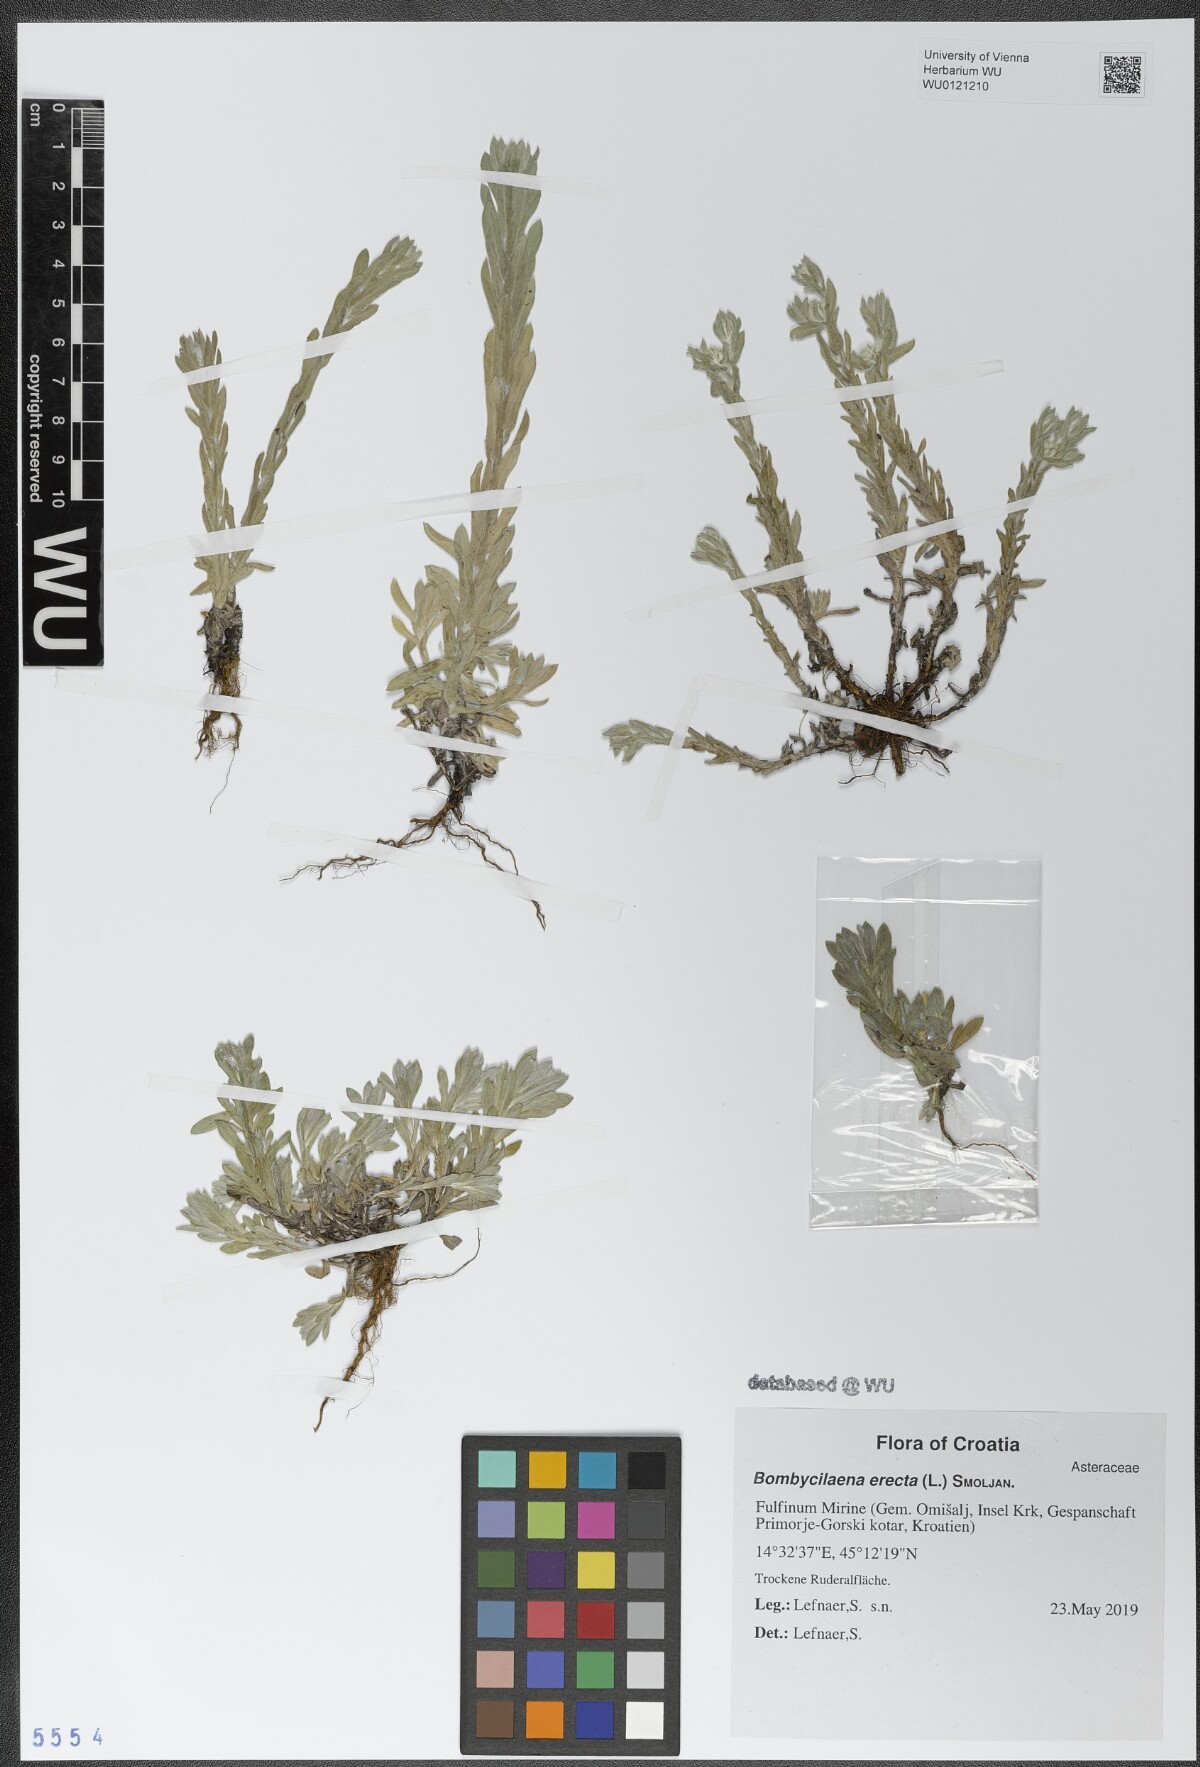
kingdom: Plantae
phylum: Tracheophyta
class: Magnoliopsida
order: Asterales
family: Asteraceae
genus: Bombycilaena
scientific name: Bombycilaena erecta
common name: Micropus
